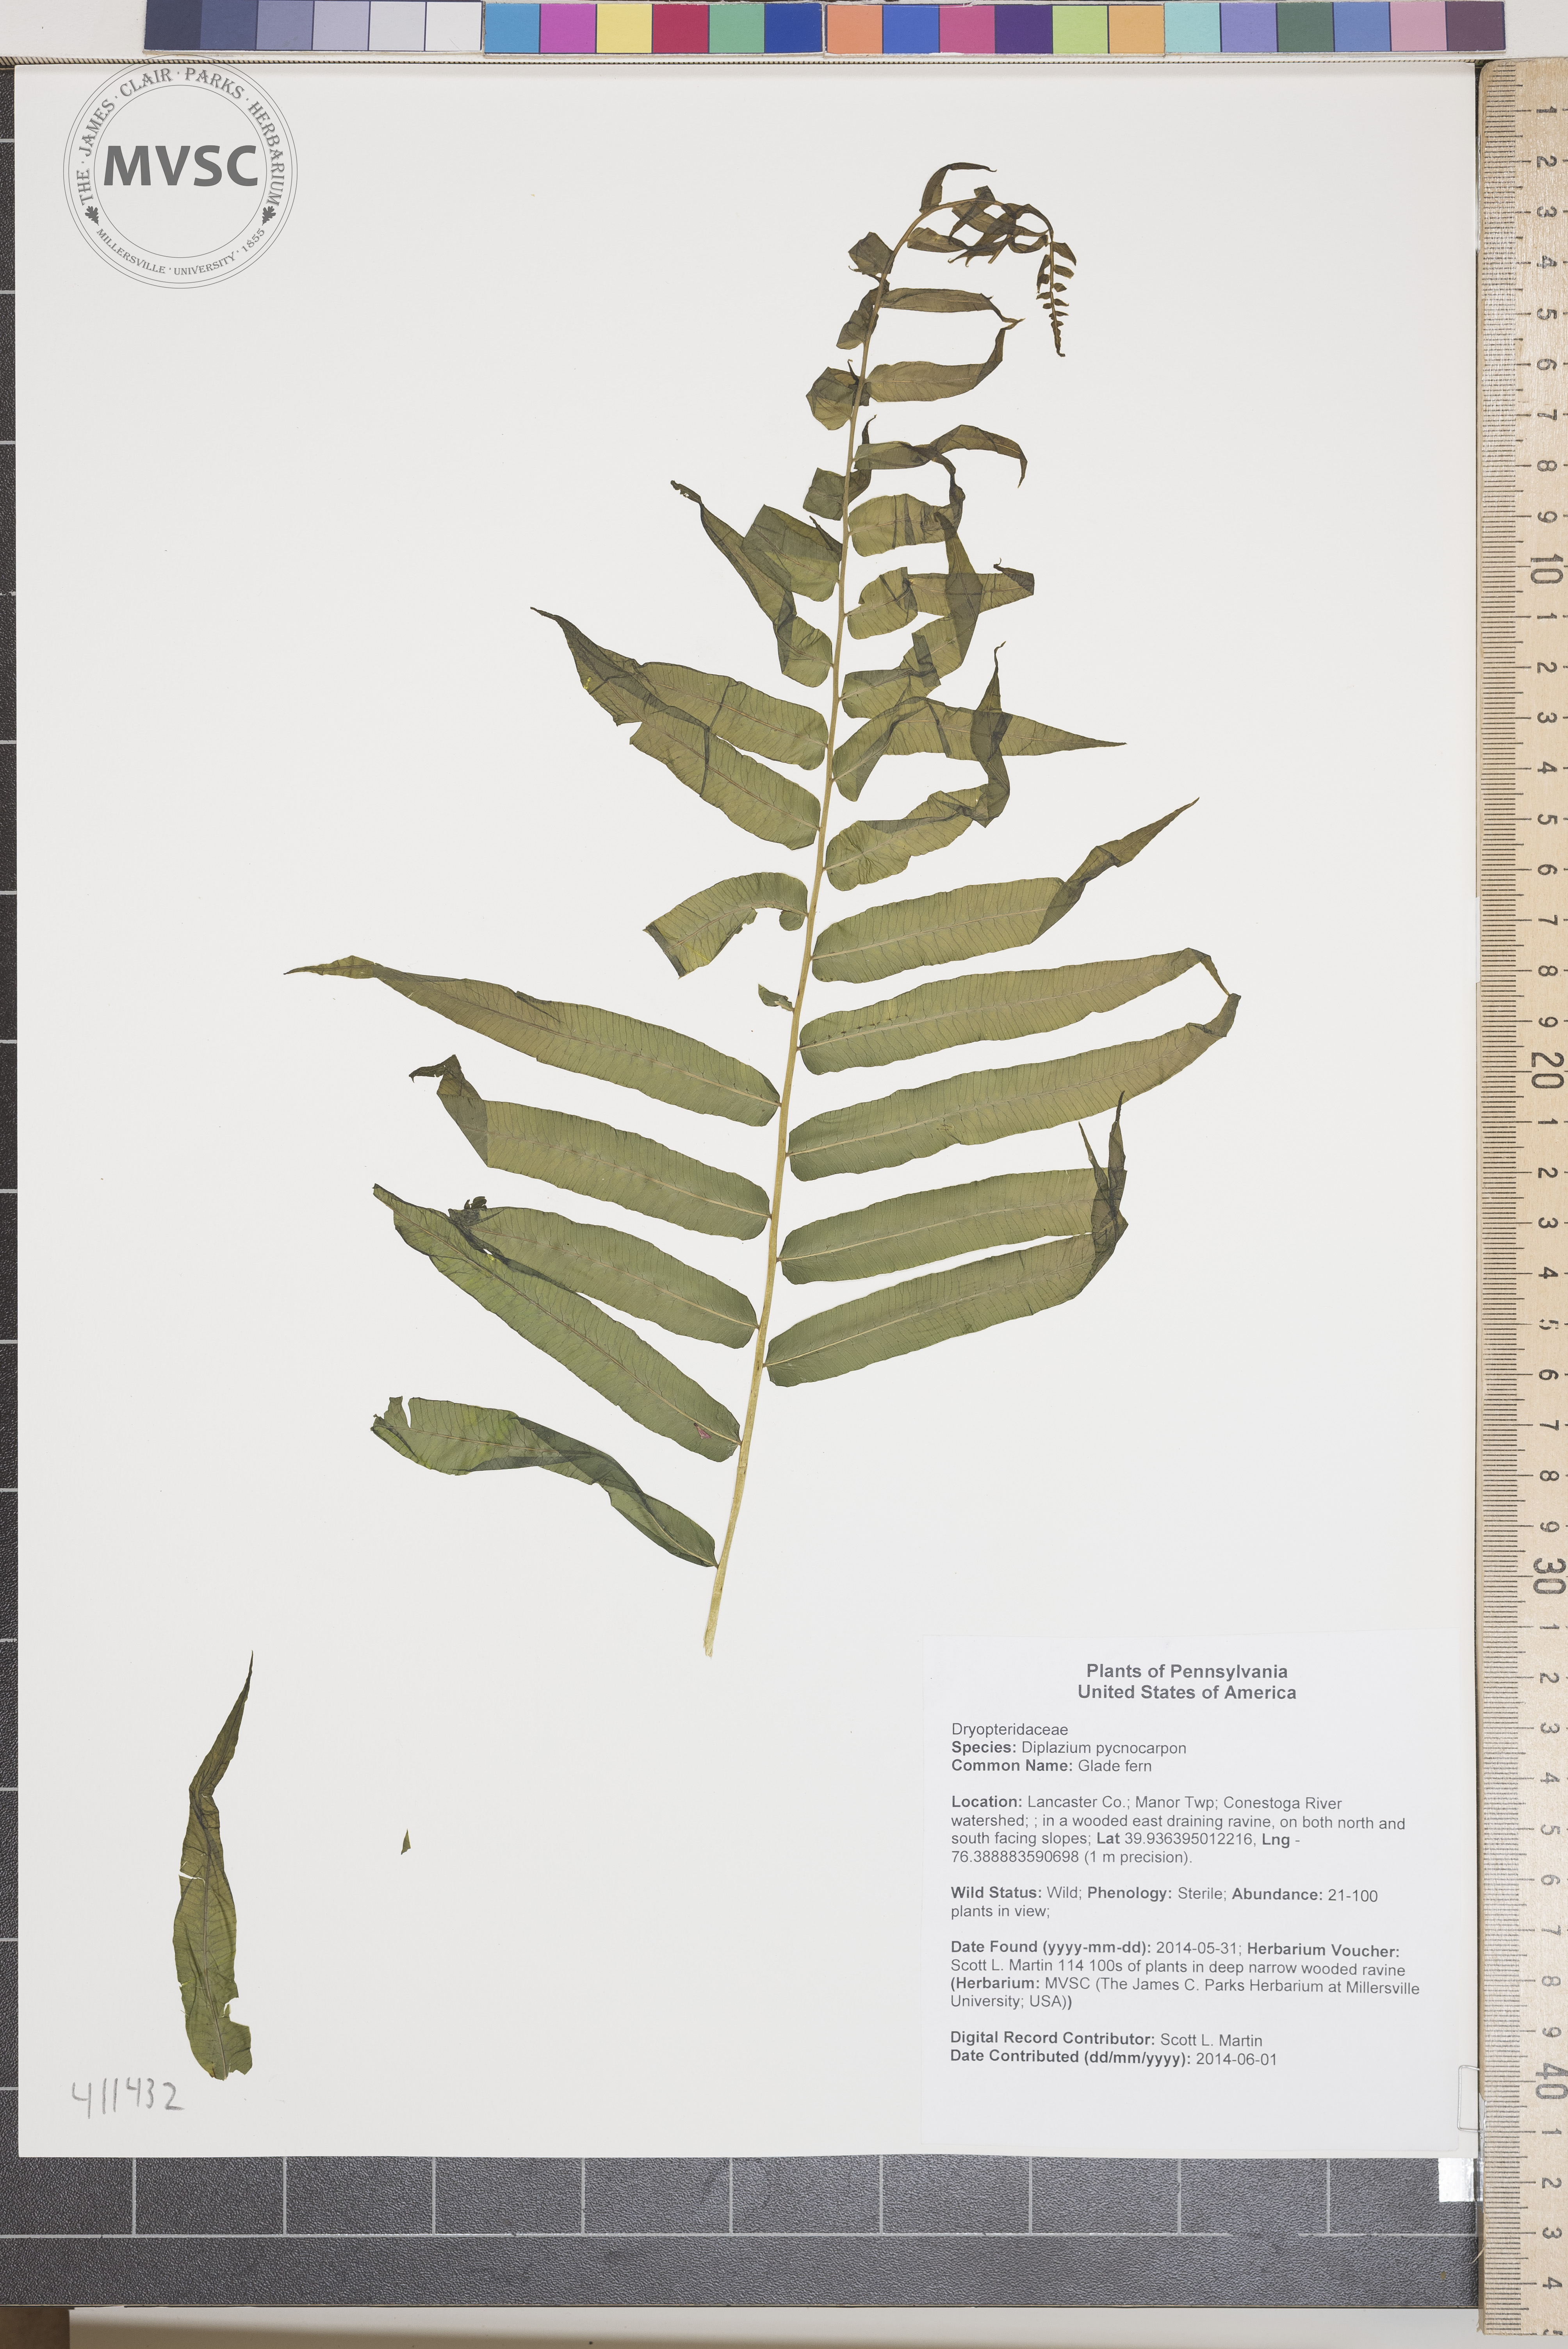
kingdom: Plantae
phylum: Tracheophyta
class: Polypodiopsida
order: Polypodiales
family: Diplaziopsidaceae
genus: Homalosorus
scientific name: Homalosorus pycnocarpos
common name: Glade fern
